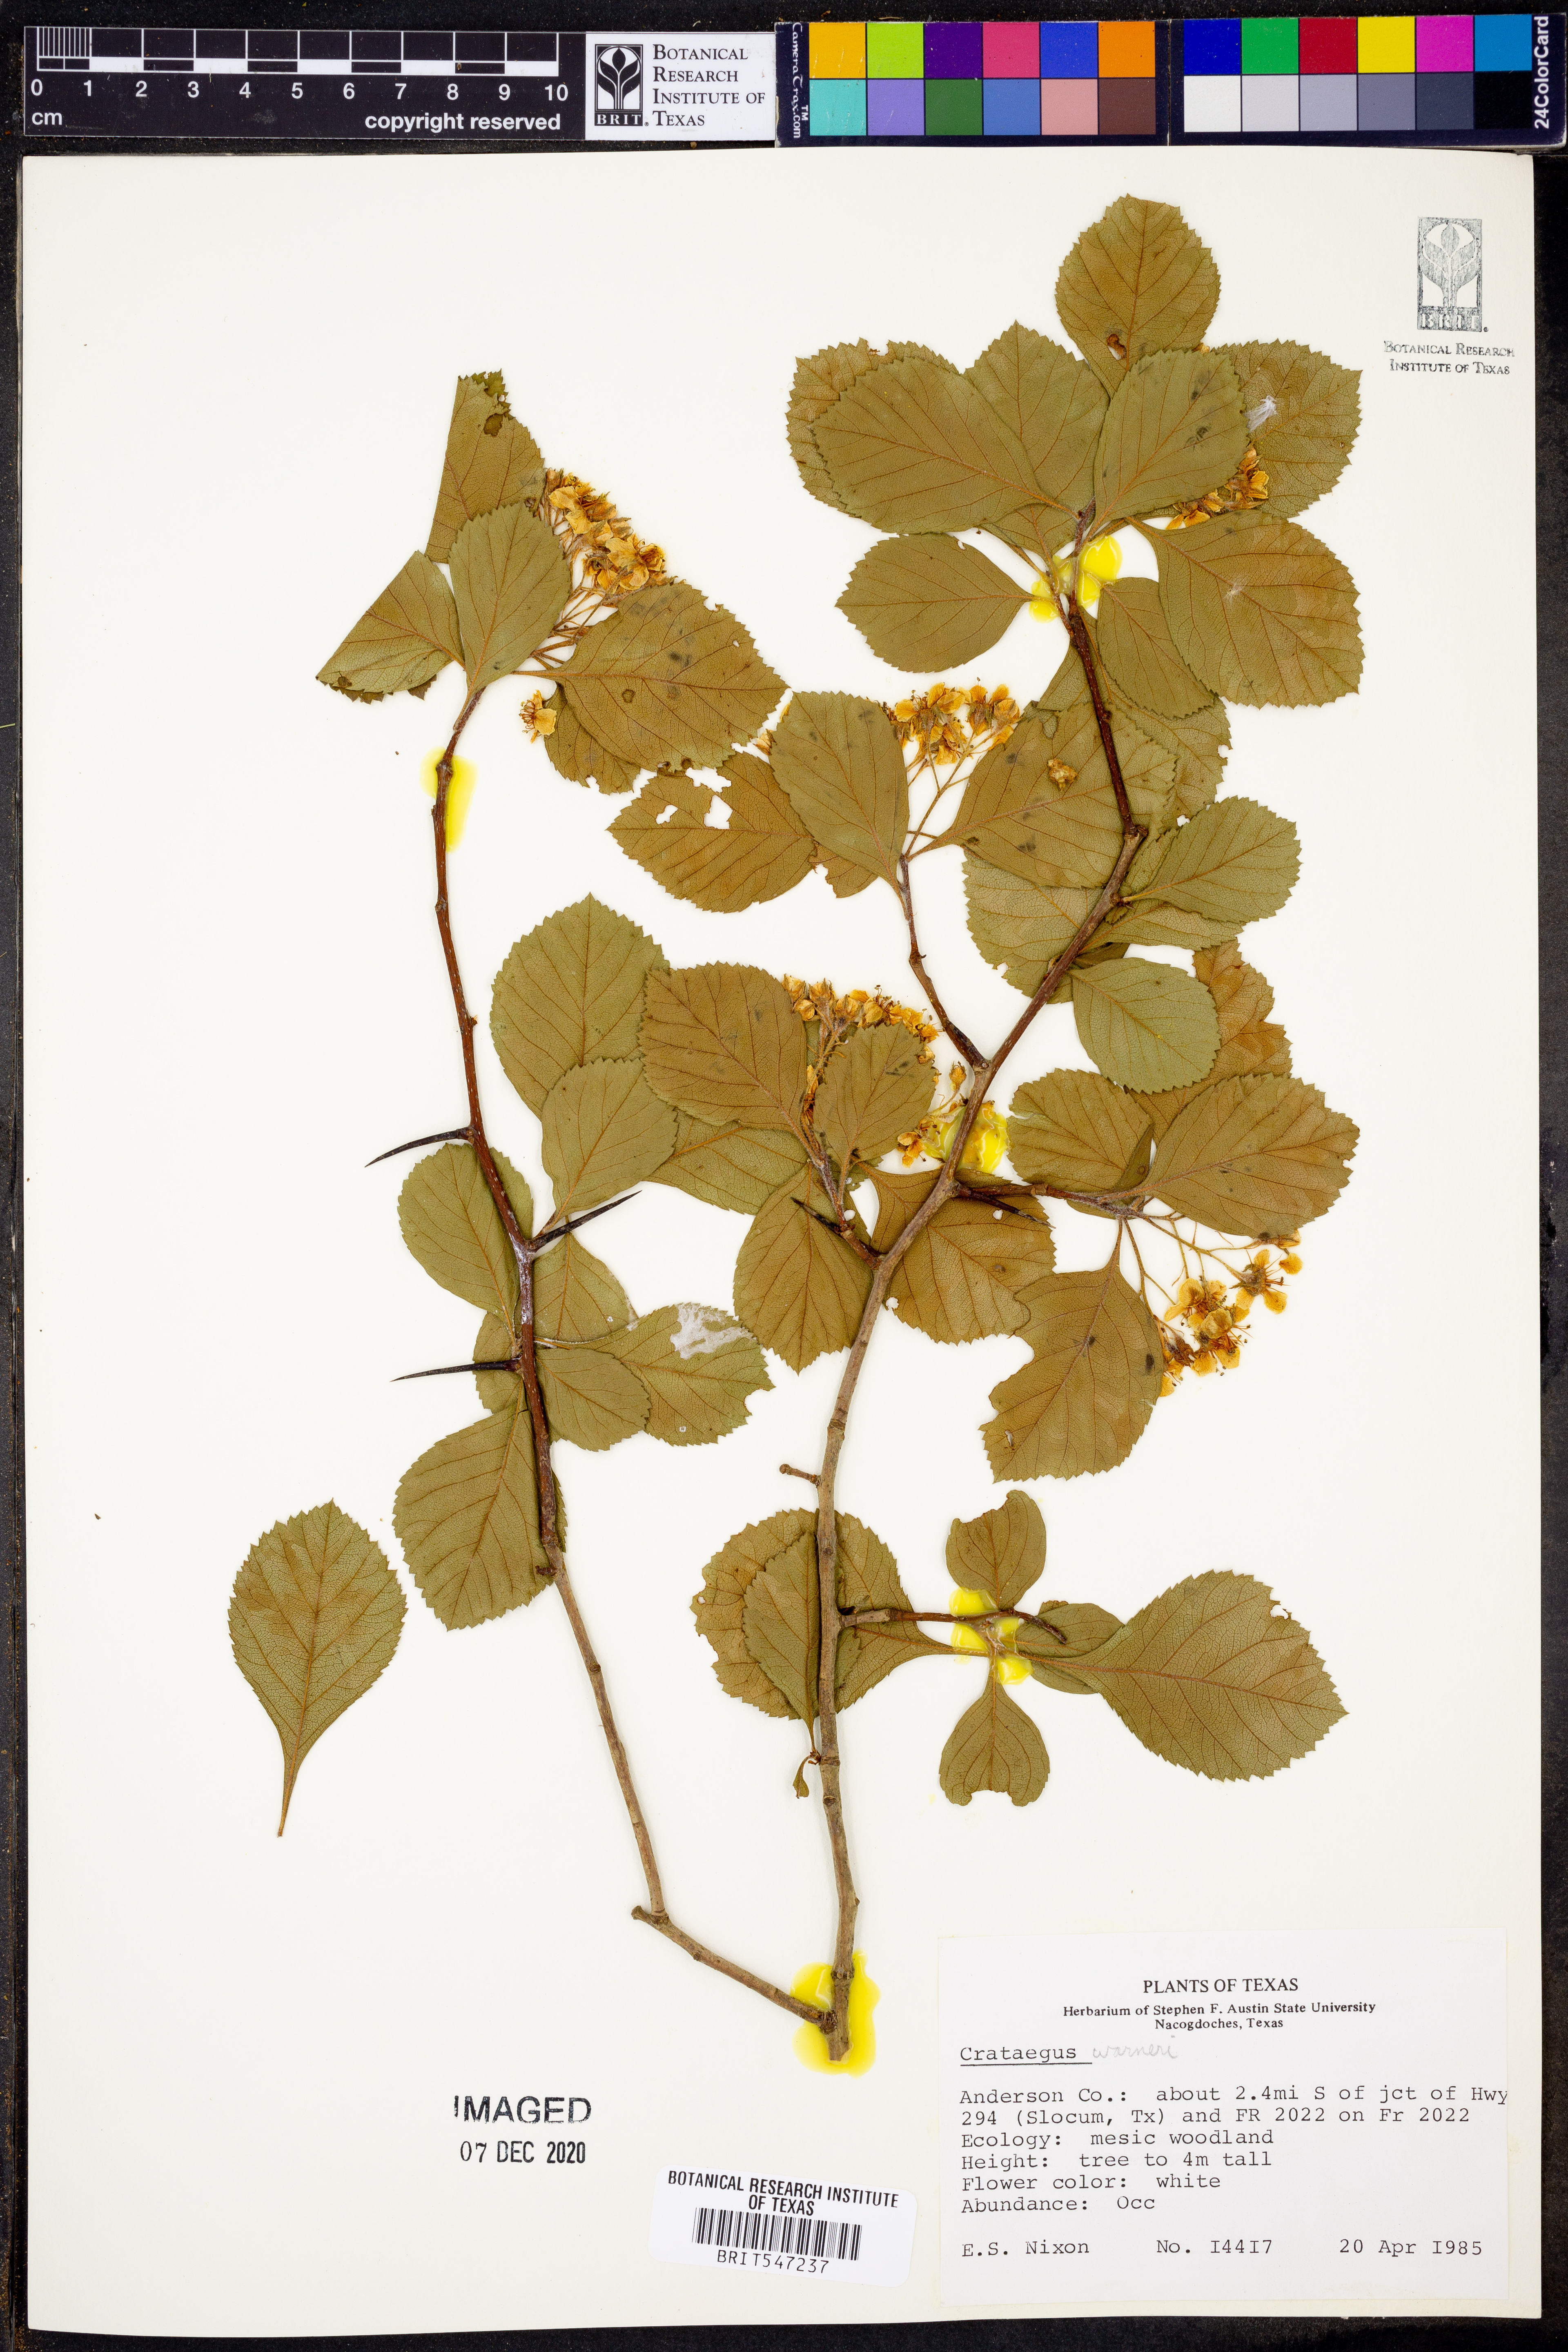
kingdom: Plantae
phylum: Tracheophyta
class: Magnoliopsida
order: Rosales
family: Rosaceae
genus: Crataegus
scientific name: Crataegus warneri
